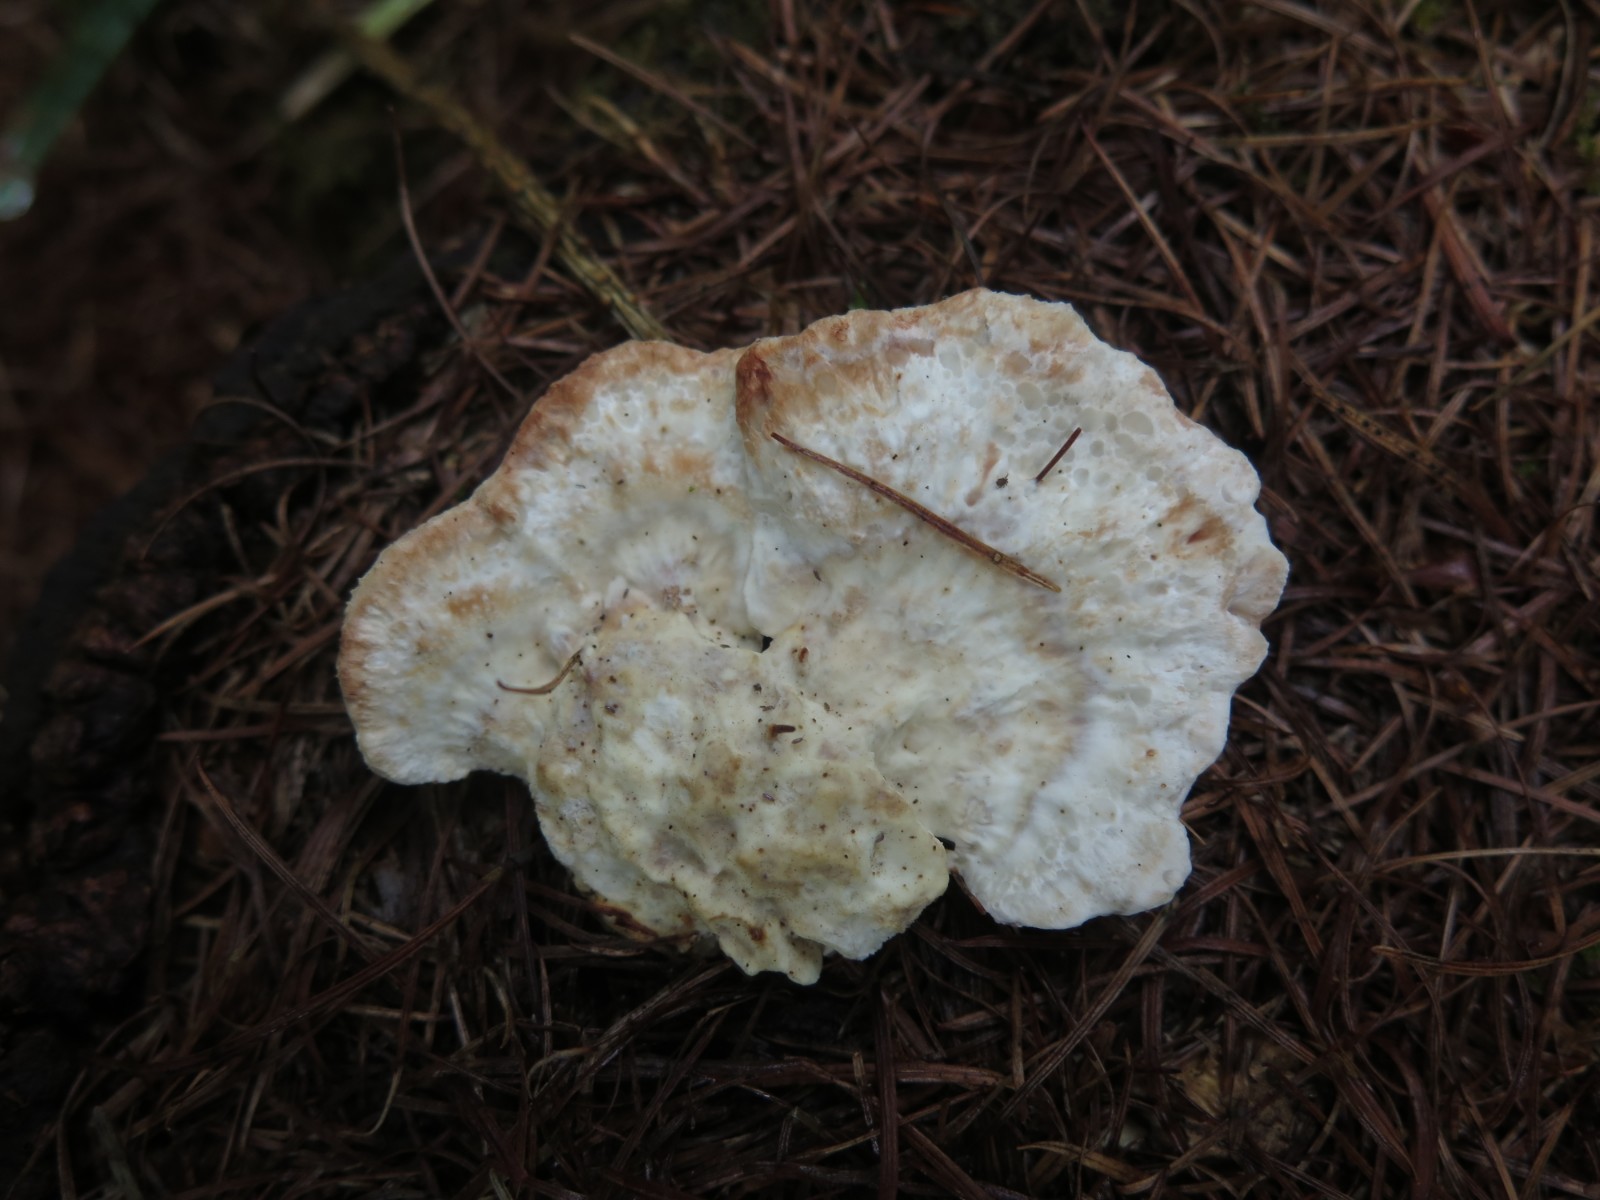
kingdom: Fungi
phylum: Basidiomycota
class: Agaricomycetes
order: Polyporales
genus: Calcipostia
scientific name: Calcipostia guttulata
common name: dråbe-kødporesvamp
